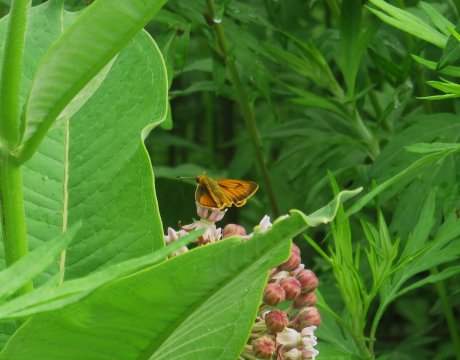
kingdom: Animalia
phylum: Arthropoda
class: Insecta
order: Lepidoptera
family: Hesperiidae
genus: Atrytone
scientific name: Atrytone delaware
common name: Delaware Skipper
